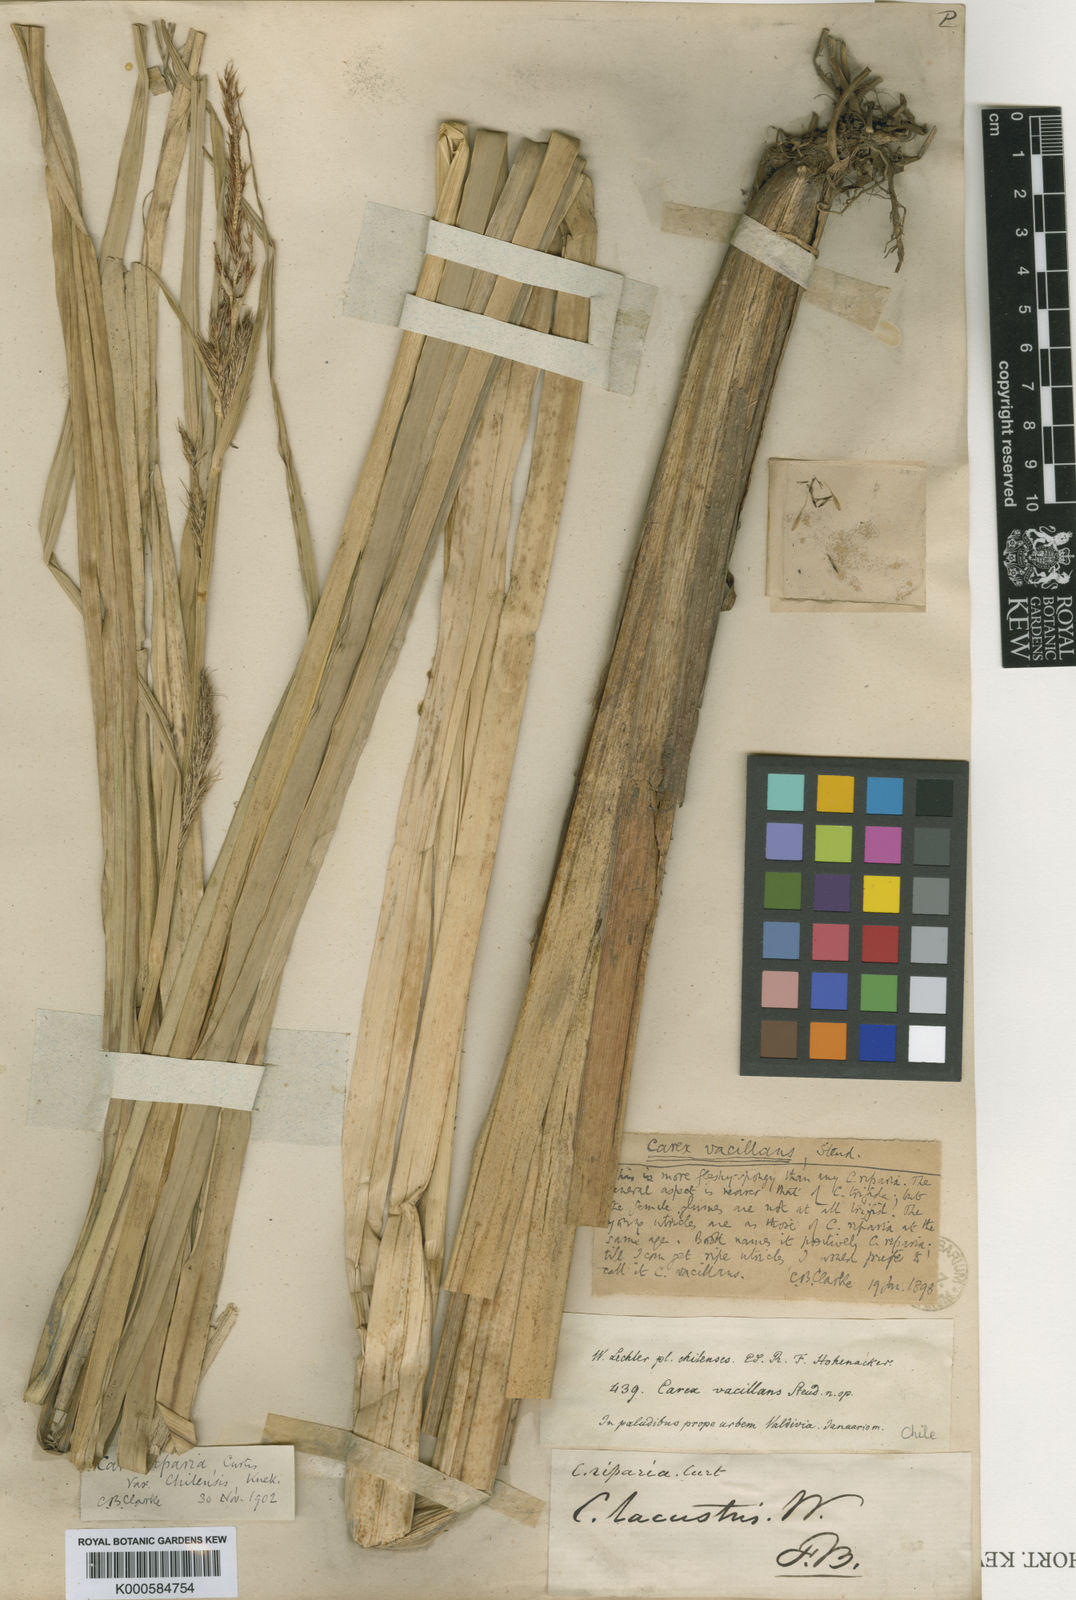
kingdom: Plantae
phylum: Tracheophyta
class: Liliopsida
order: Poales
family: Cyperaceae
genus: Carex
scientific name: Carex riparia
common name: Greater pond-sedge
